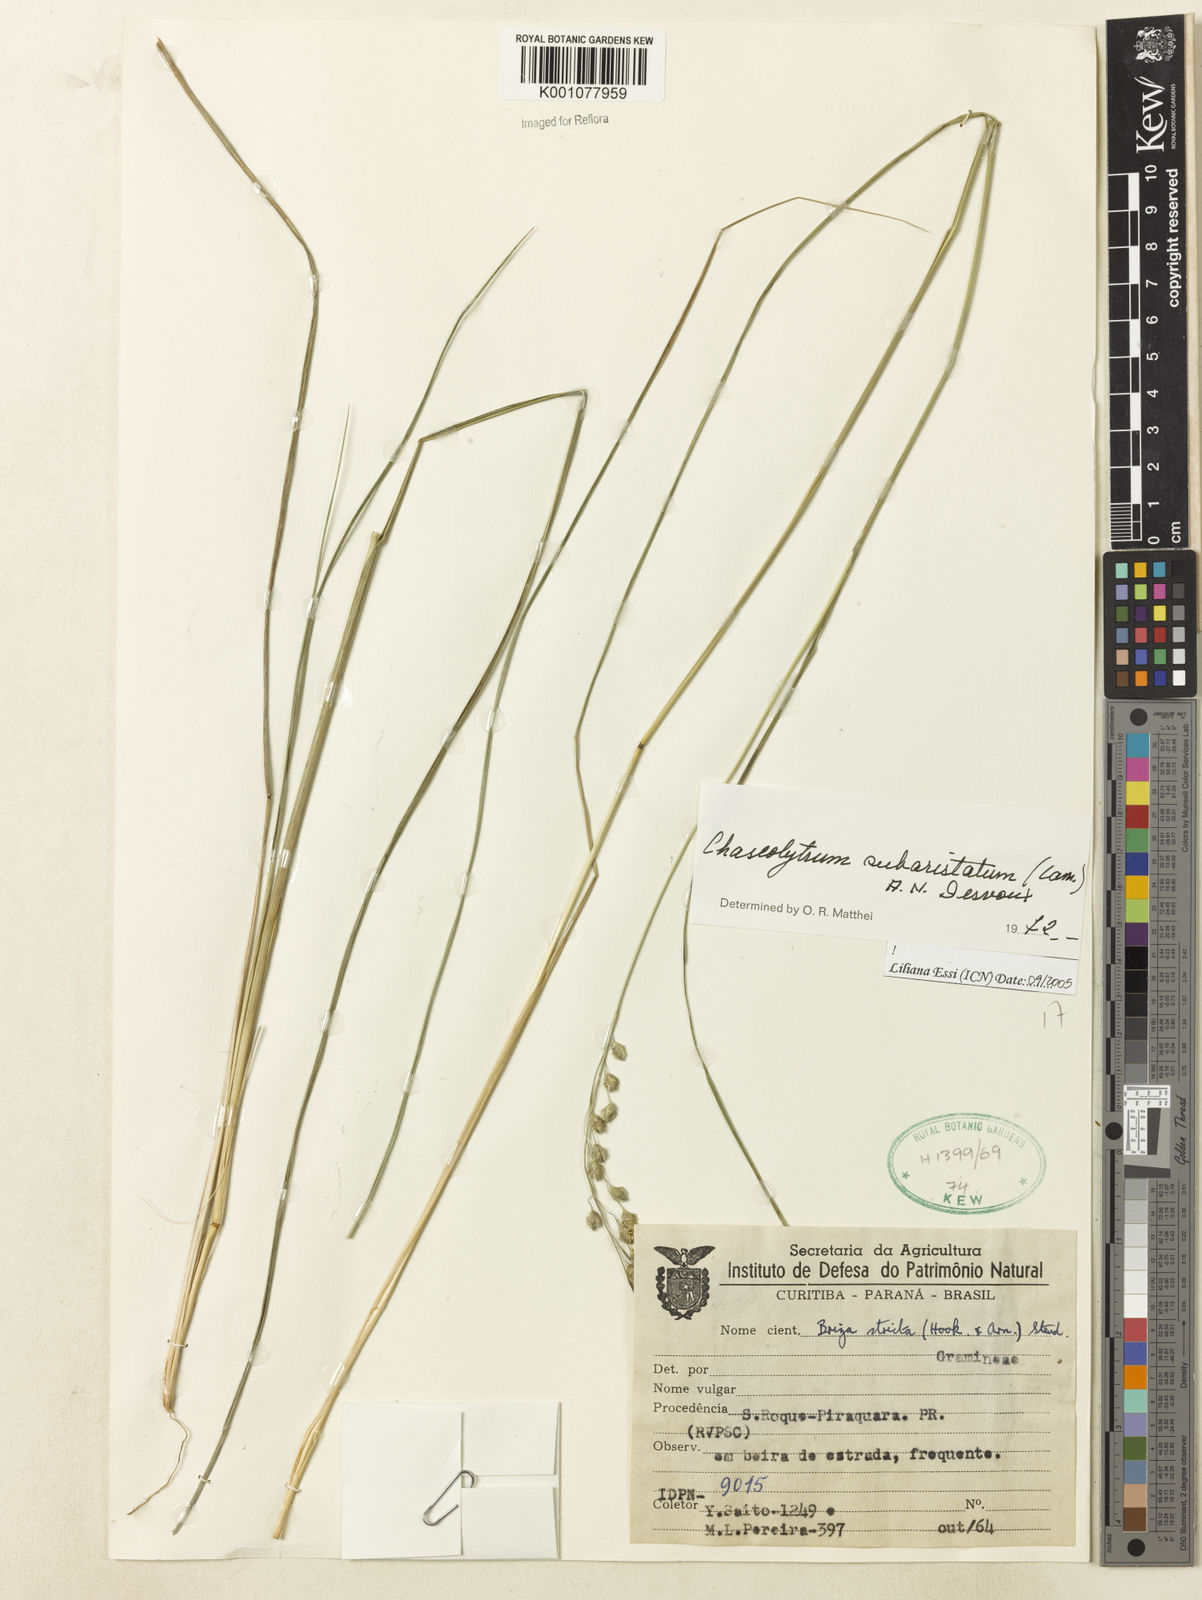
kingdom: Plantae
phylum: Tracheophyta
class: Liliopsida
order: Poales
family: Poaceae
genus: Briza
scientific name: Briza
